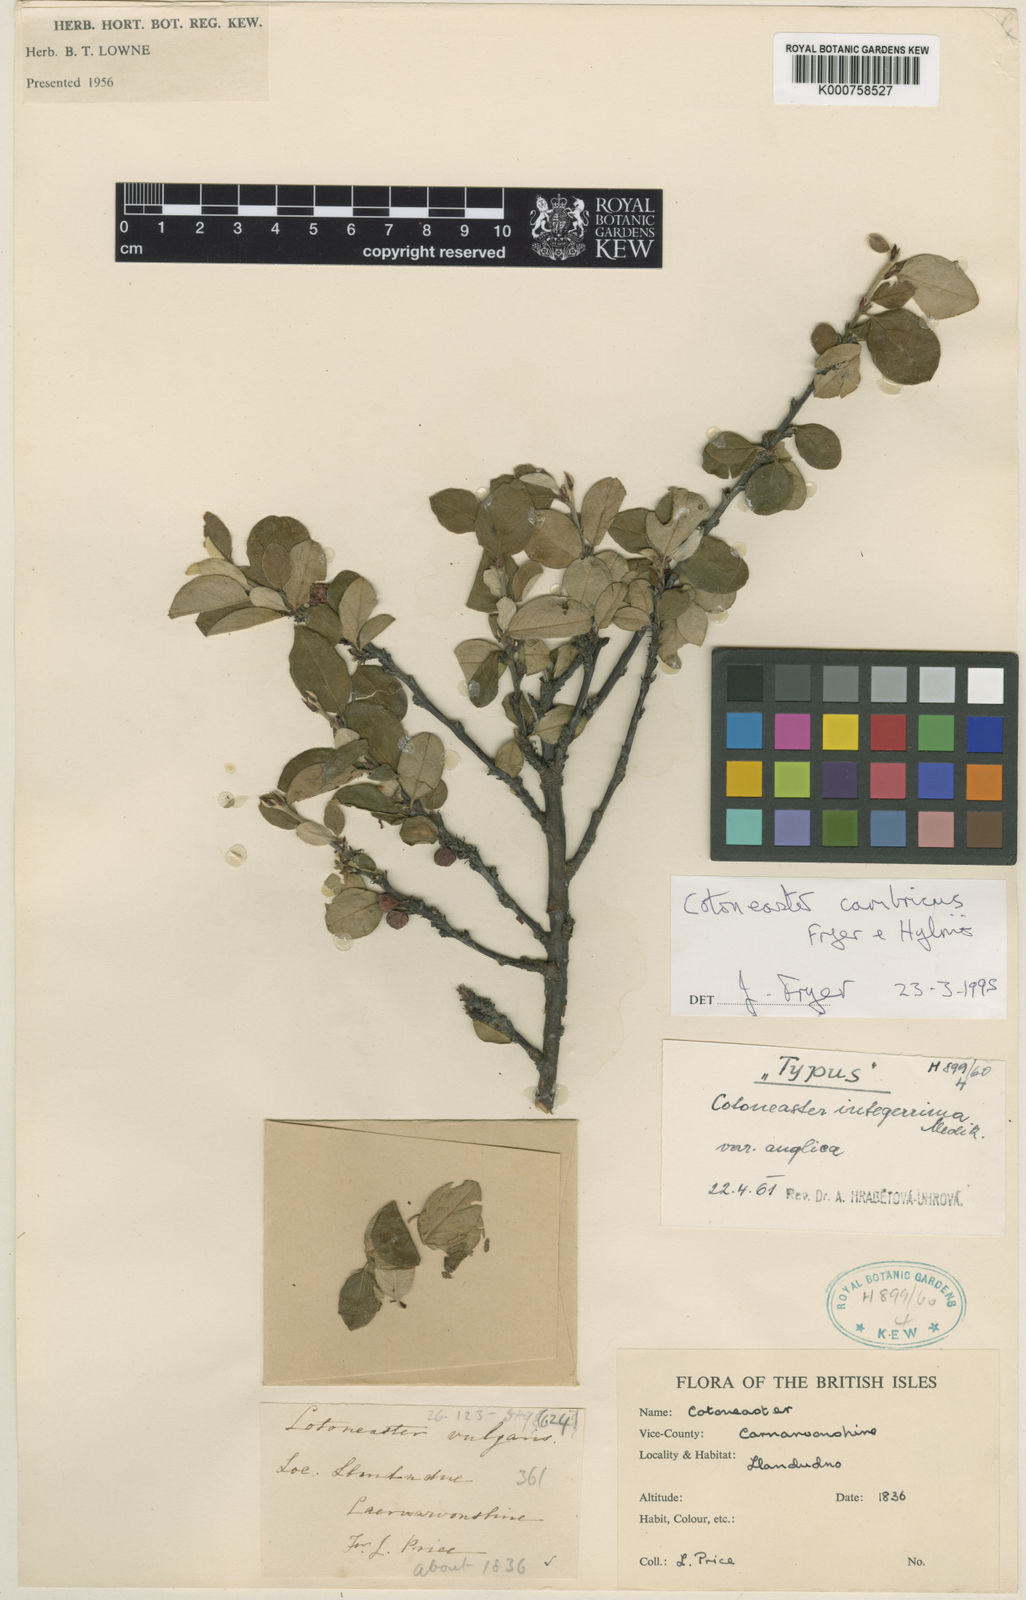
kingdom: Plantae
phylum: Tracheophyta
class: Magnoliopsida
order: Rosales
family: Rosaceae
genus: Cotoneaster
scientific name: Cotoneaster integerrimus
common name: Wild cotoneaster
